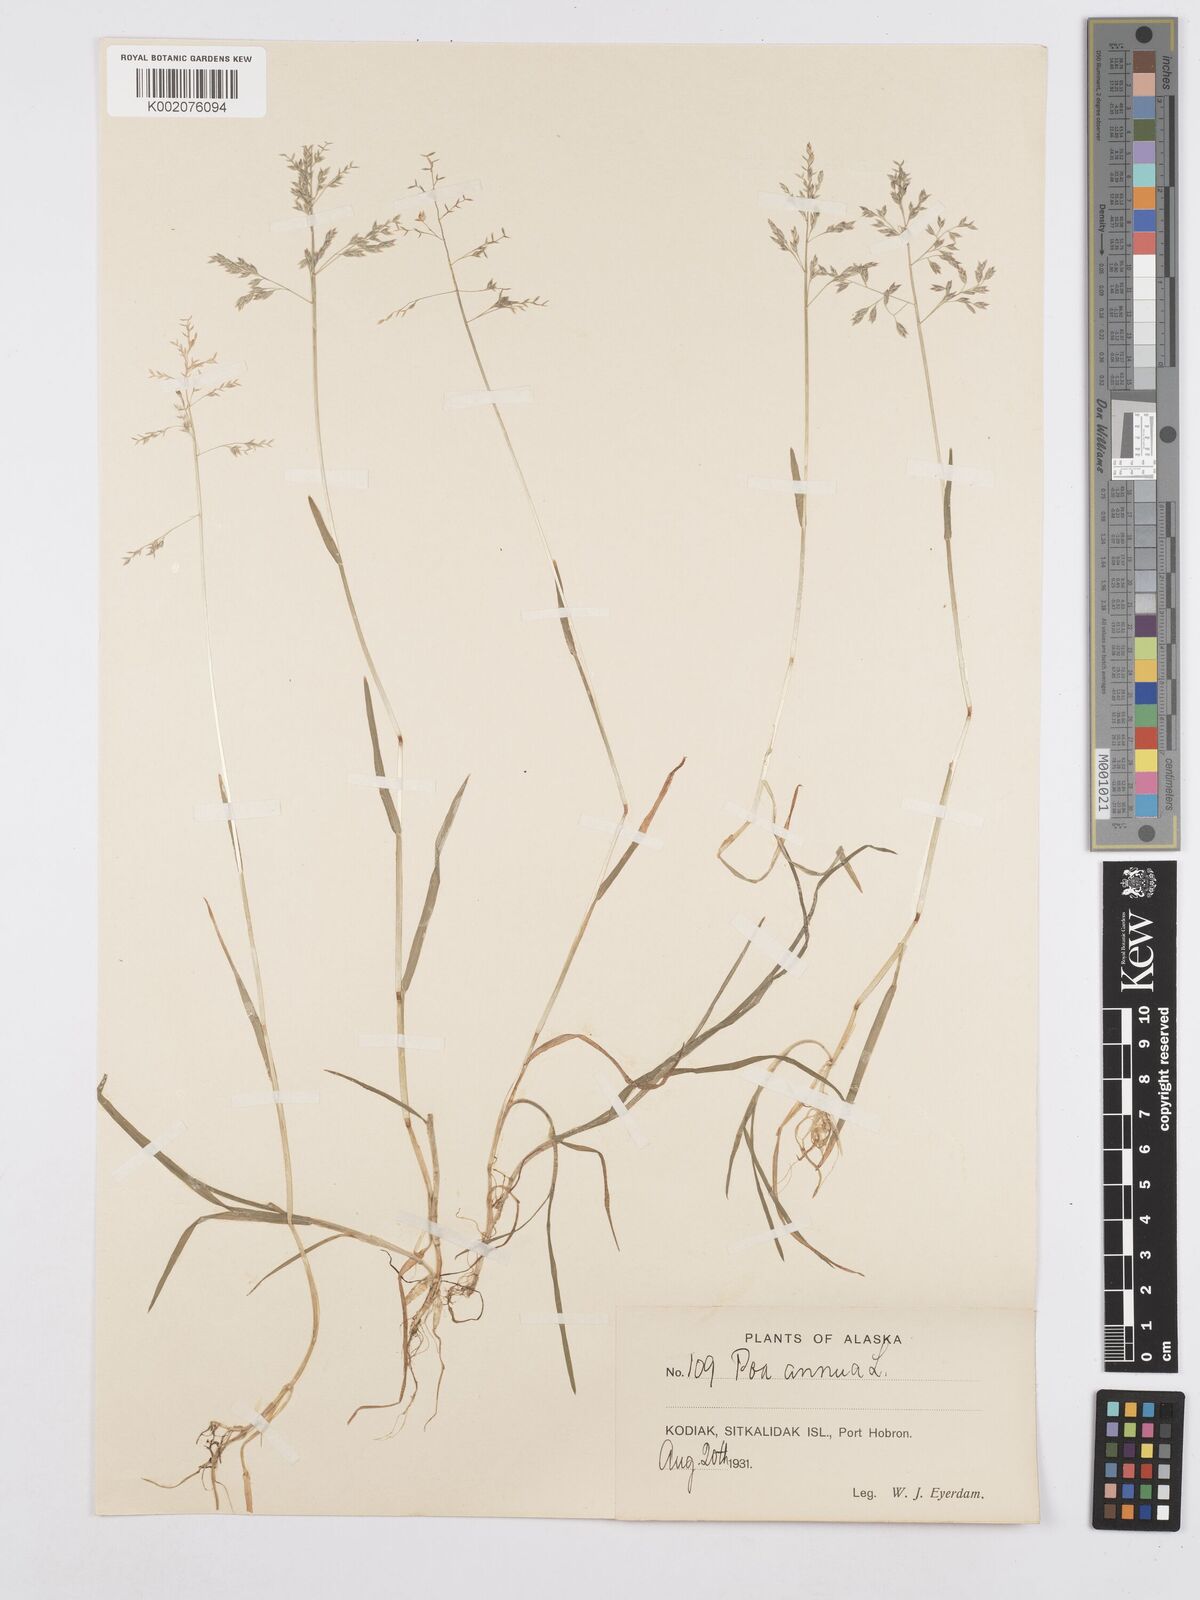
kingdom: Plantae
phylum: Tracheophyta
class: Liliopsida
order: Poales
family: Poaceae
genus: Poa
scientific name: Poa annua
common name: Annual bluegrass
